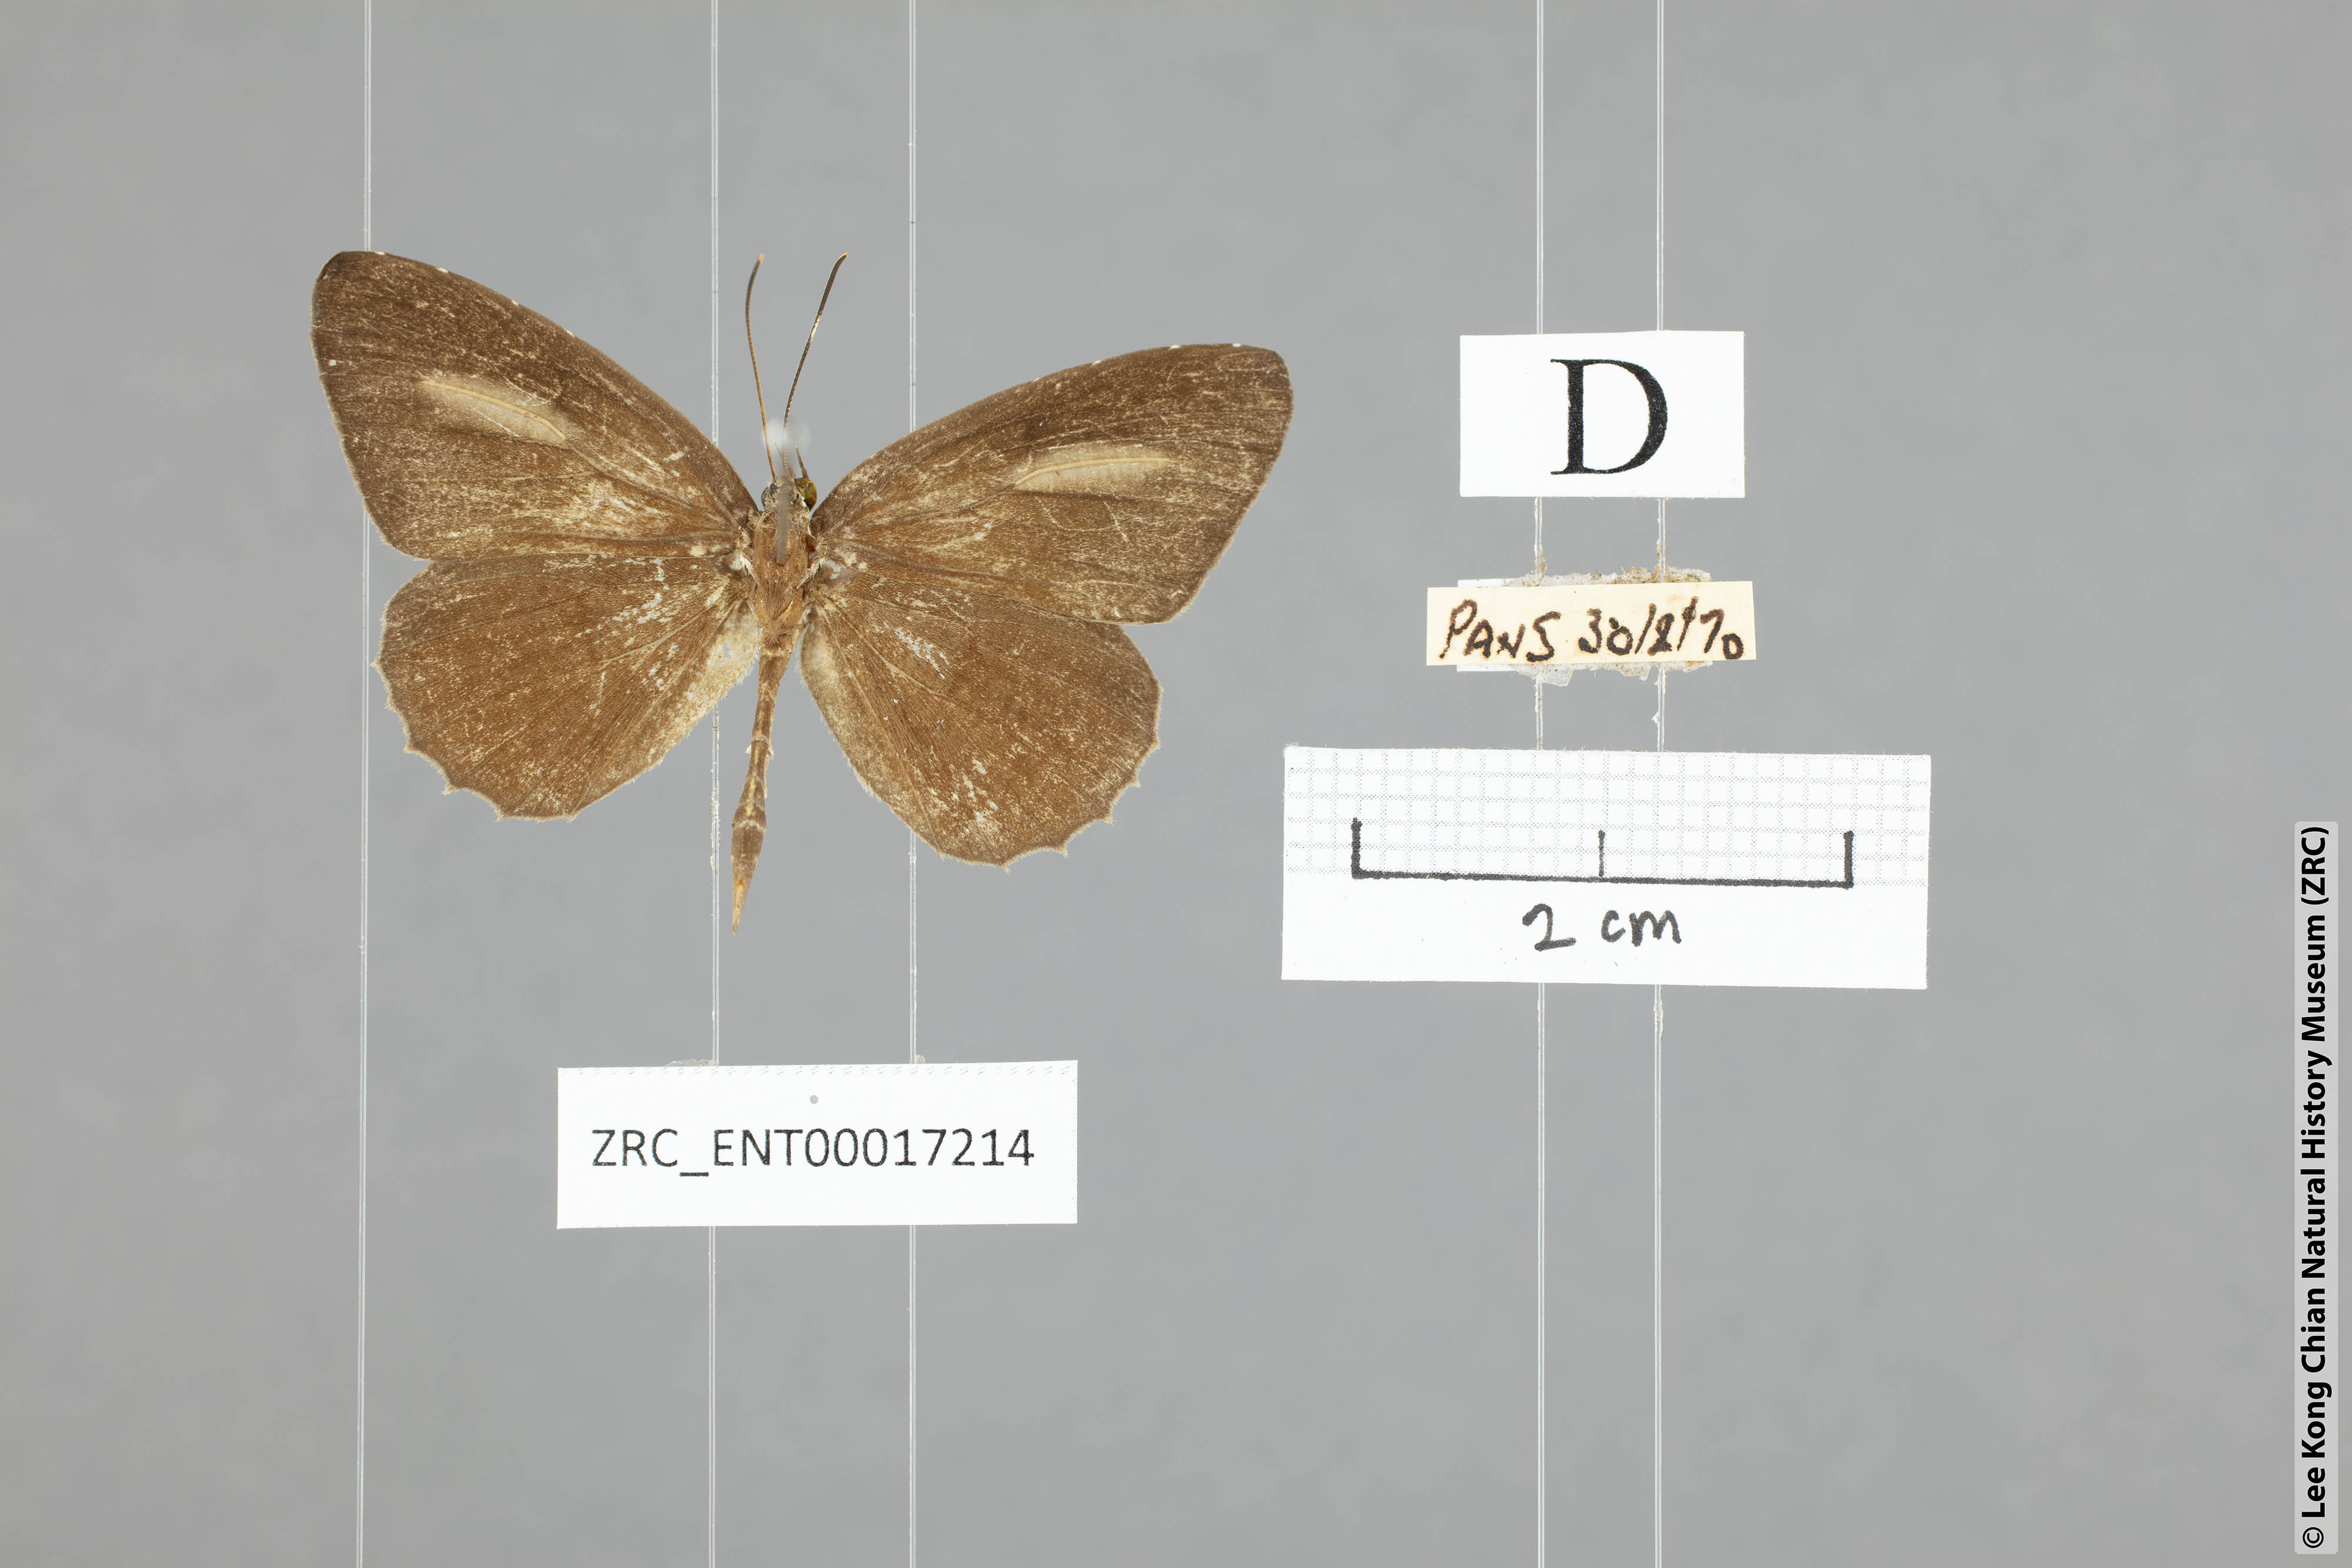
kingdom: Animalia
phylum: Arthropoda
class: Insecta
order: Lepidoptera
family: Lycaenidae
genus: Paragerydus
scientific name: Paragerydus horsfieldi
